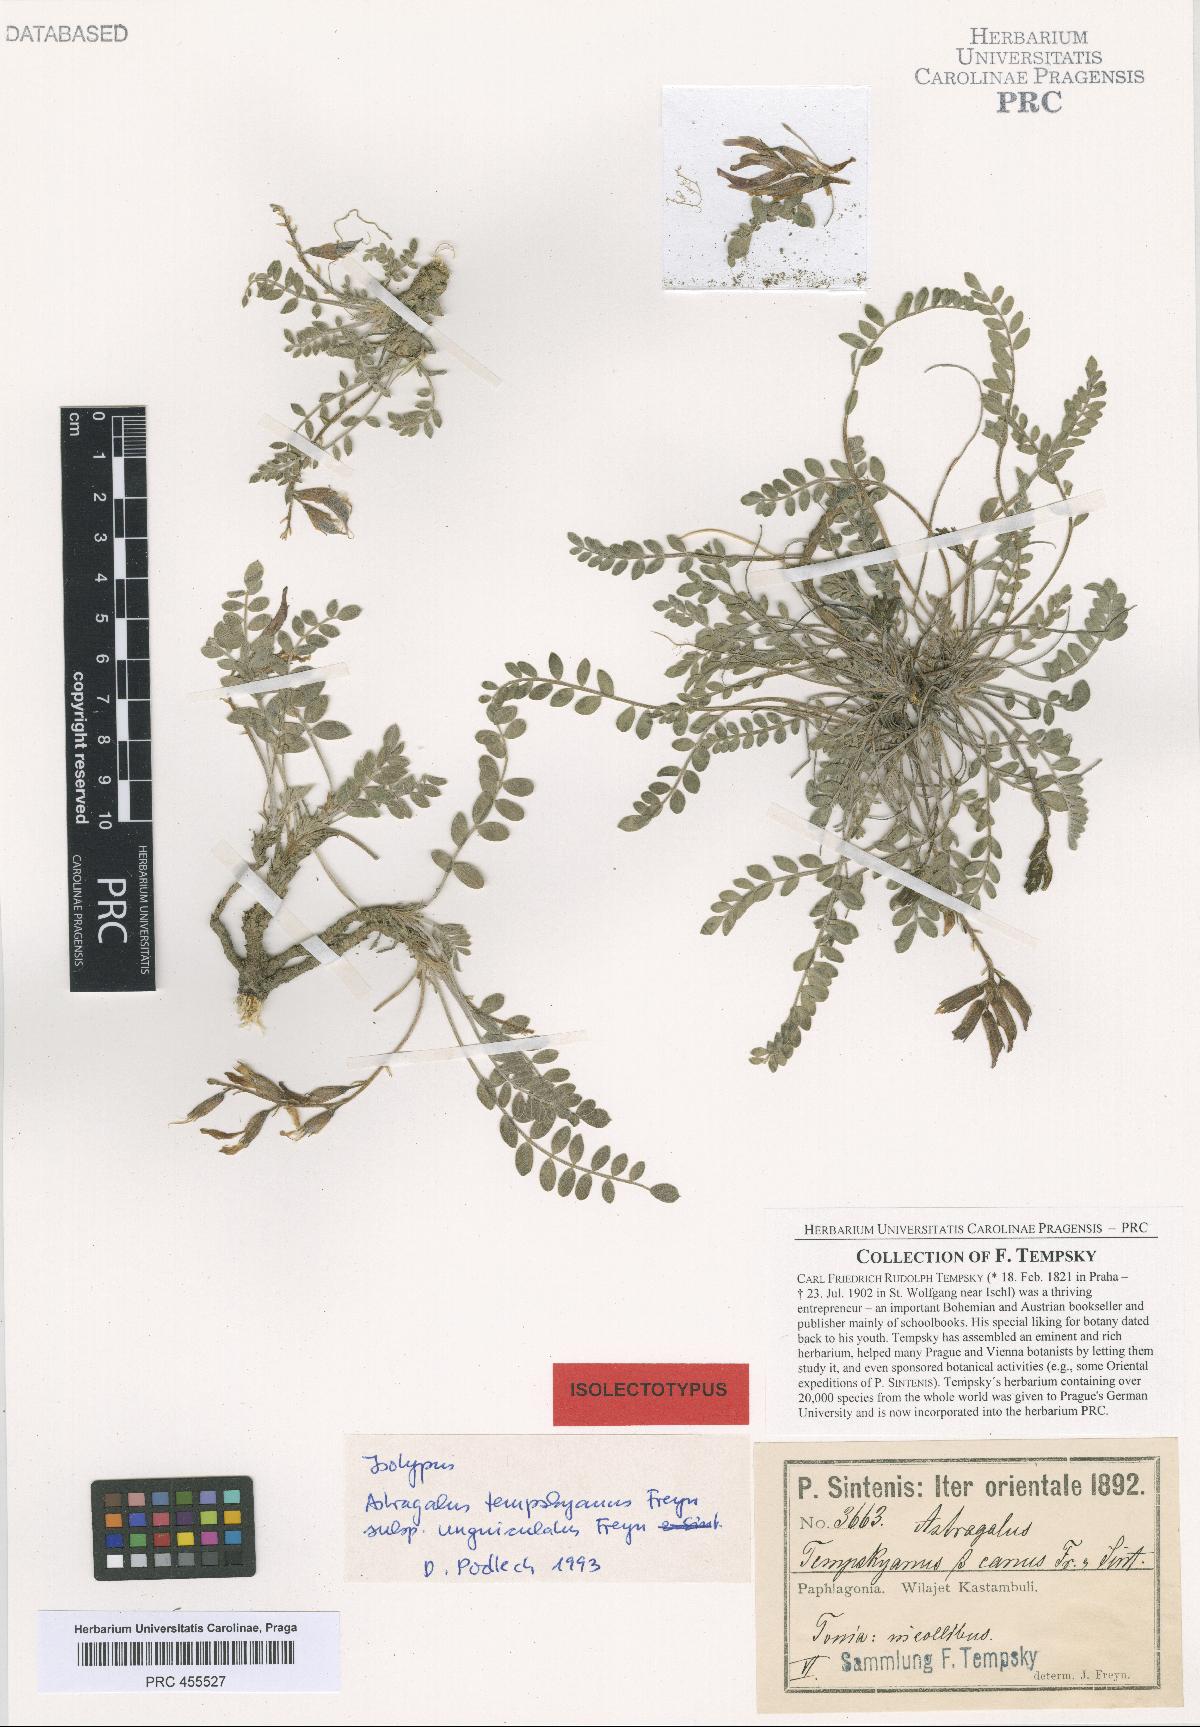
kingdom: Plantae
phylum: Tracheophyta
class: Magnoliopsida
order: Fabales
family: Fabaceae
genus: Astragalus
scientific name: Astragalus spruneri
